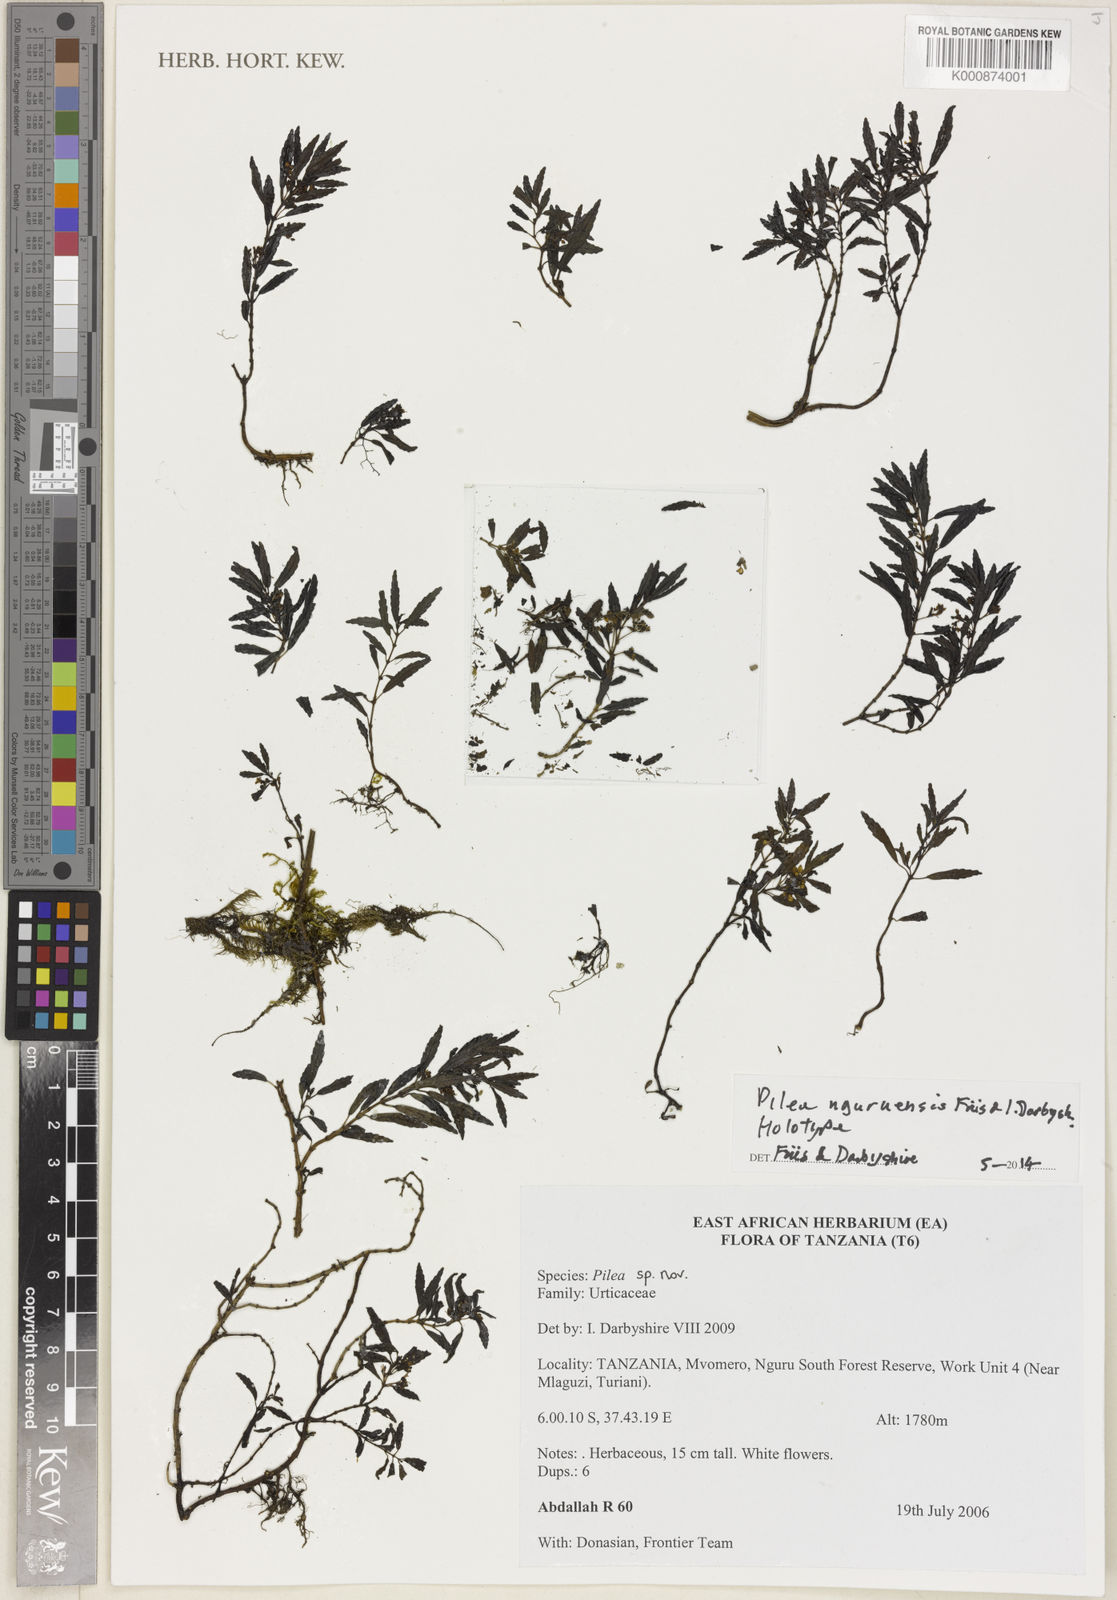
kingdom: Plantae
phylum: Tracheophyta
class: Magnoliopsida
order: Rosales
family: Urticaceae
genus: Pilea
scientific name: Pilea nguruensis
